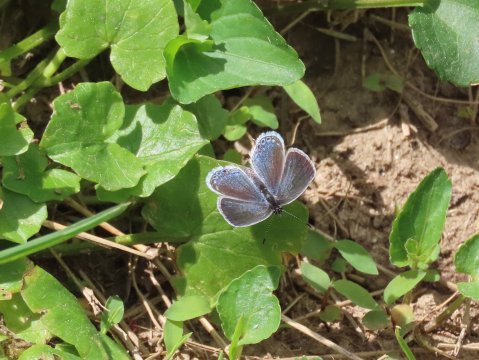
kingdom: Animalia
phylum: Arthropoda
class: Insecta
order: Lepidoptera
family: Lycaenidae
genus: Elkalyce
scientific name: Elkalyce comyntas
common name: Eastern Tailed-Blue
